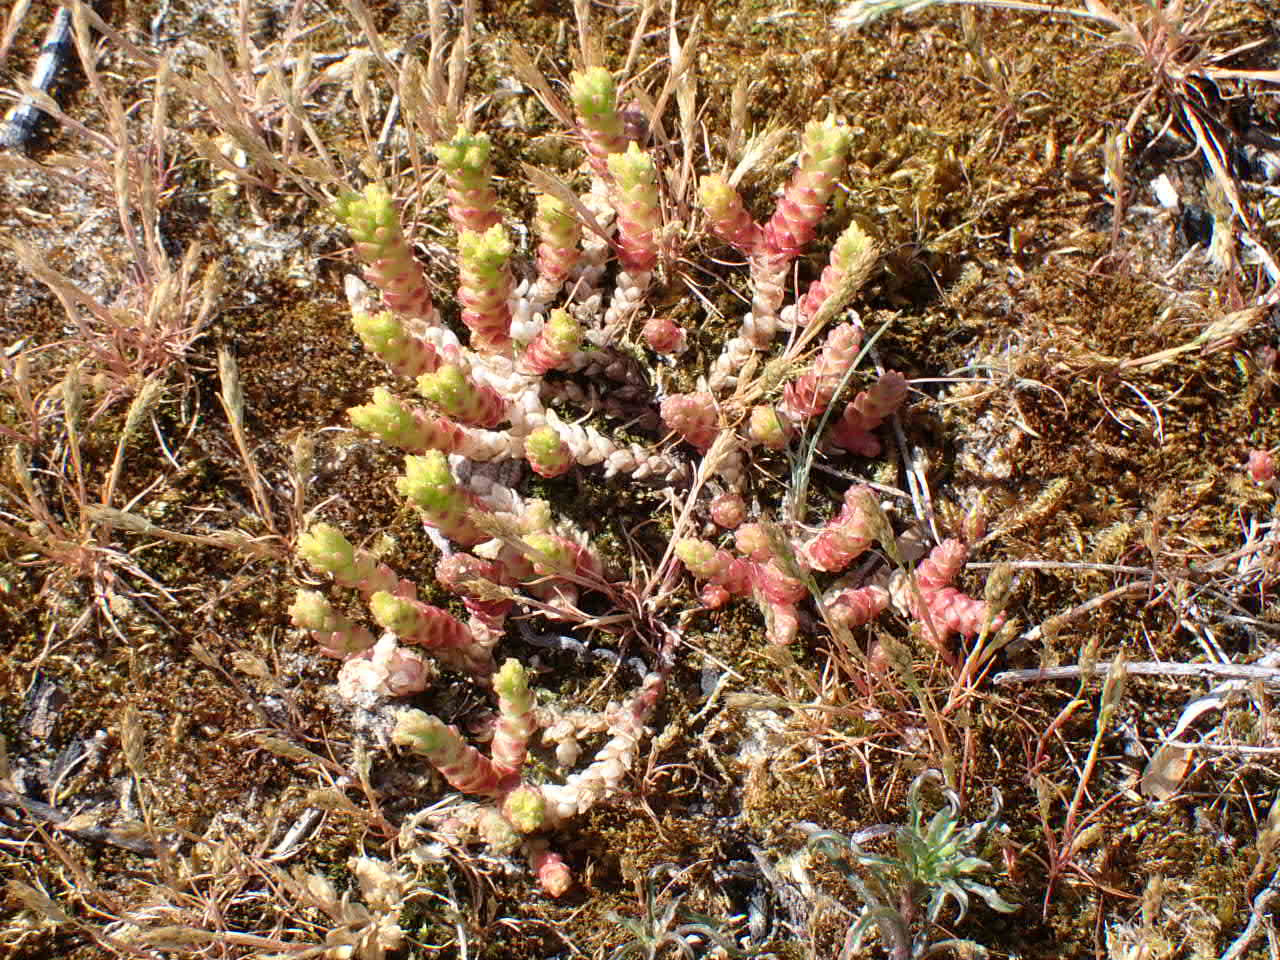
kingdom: Plantae
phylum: Tracheophyta
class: Magnoliopsida
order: Saxifragales
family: Crassulaceae
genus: Sedum
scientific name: Sedum acre
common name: Bidende stenurt
